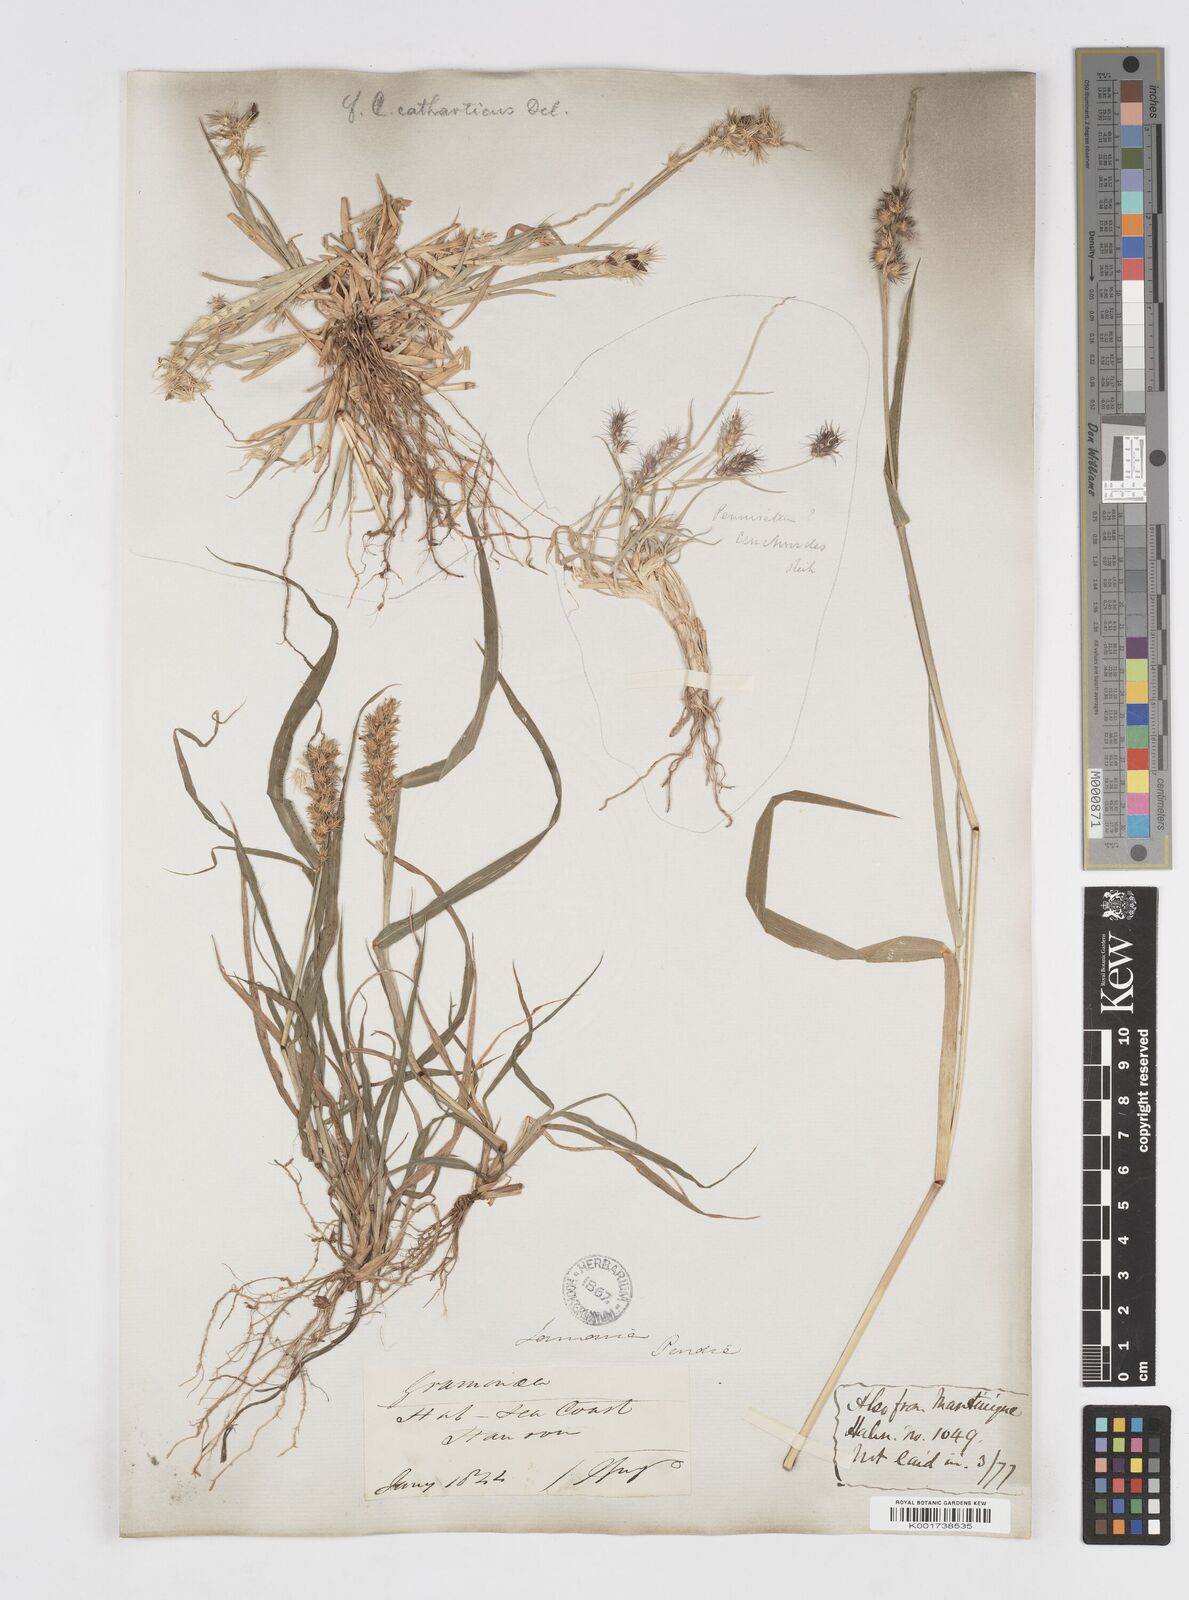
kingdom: Plantae
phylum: Tracheophyta
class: Liliopsida
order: Poales
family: Poaceae
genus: Cenchrus
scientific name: Cenchrus
